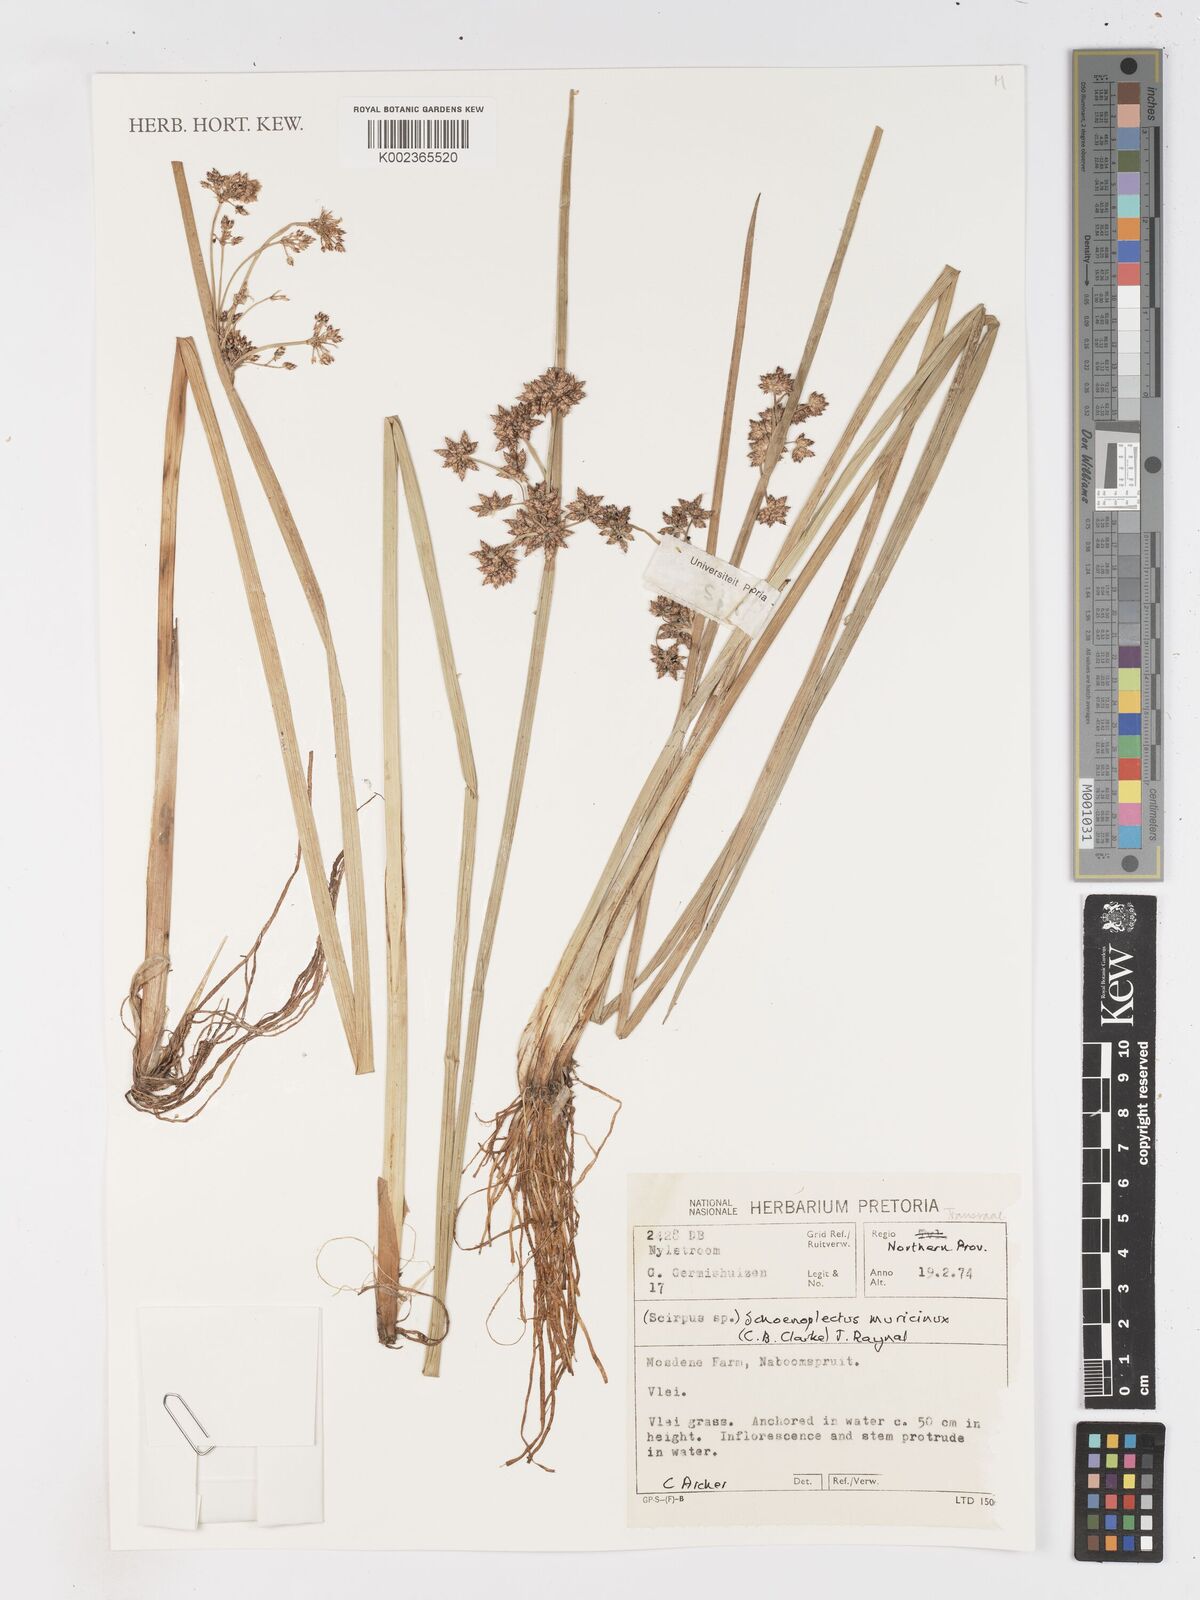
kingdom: Plantae
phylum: Tracheophyta
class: Liliopsida
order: Poales
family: Cyperaceae
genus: Schoenoplectiella
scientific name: Schoenoplectiella muricinux
